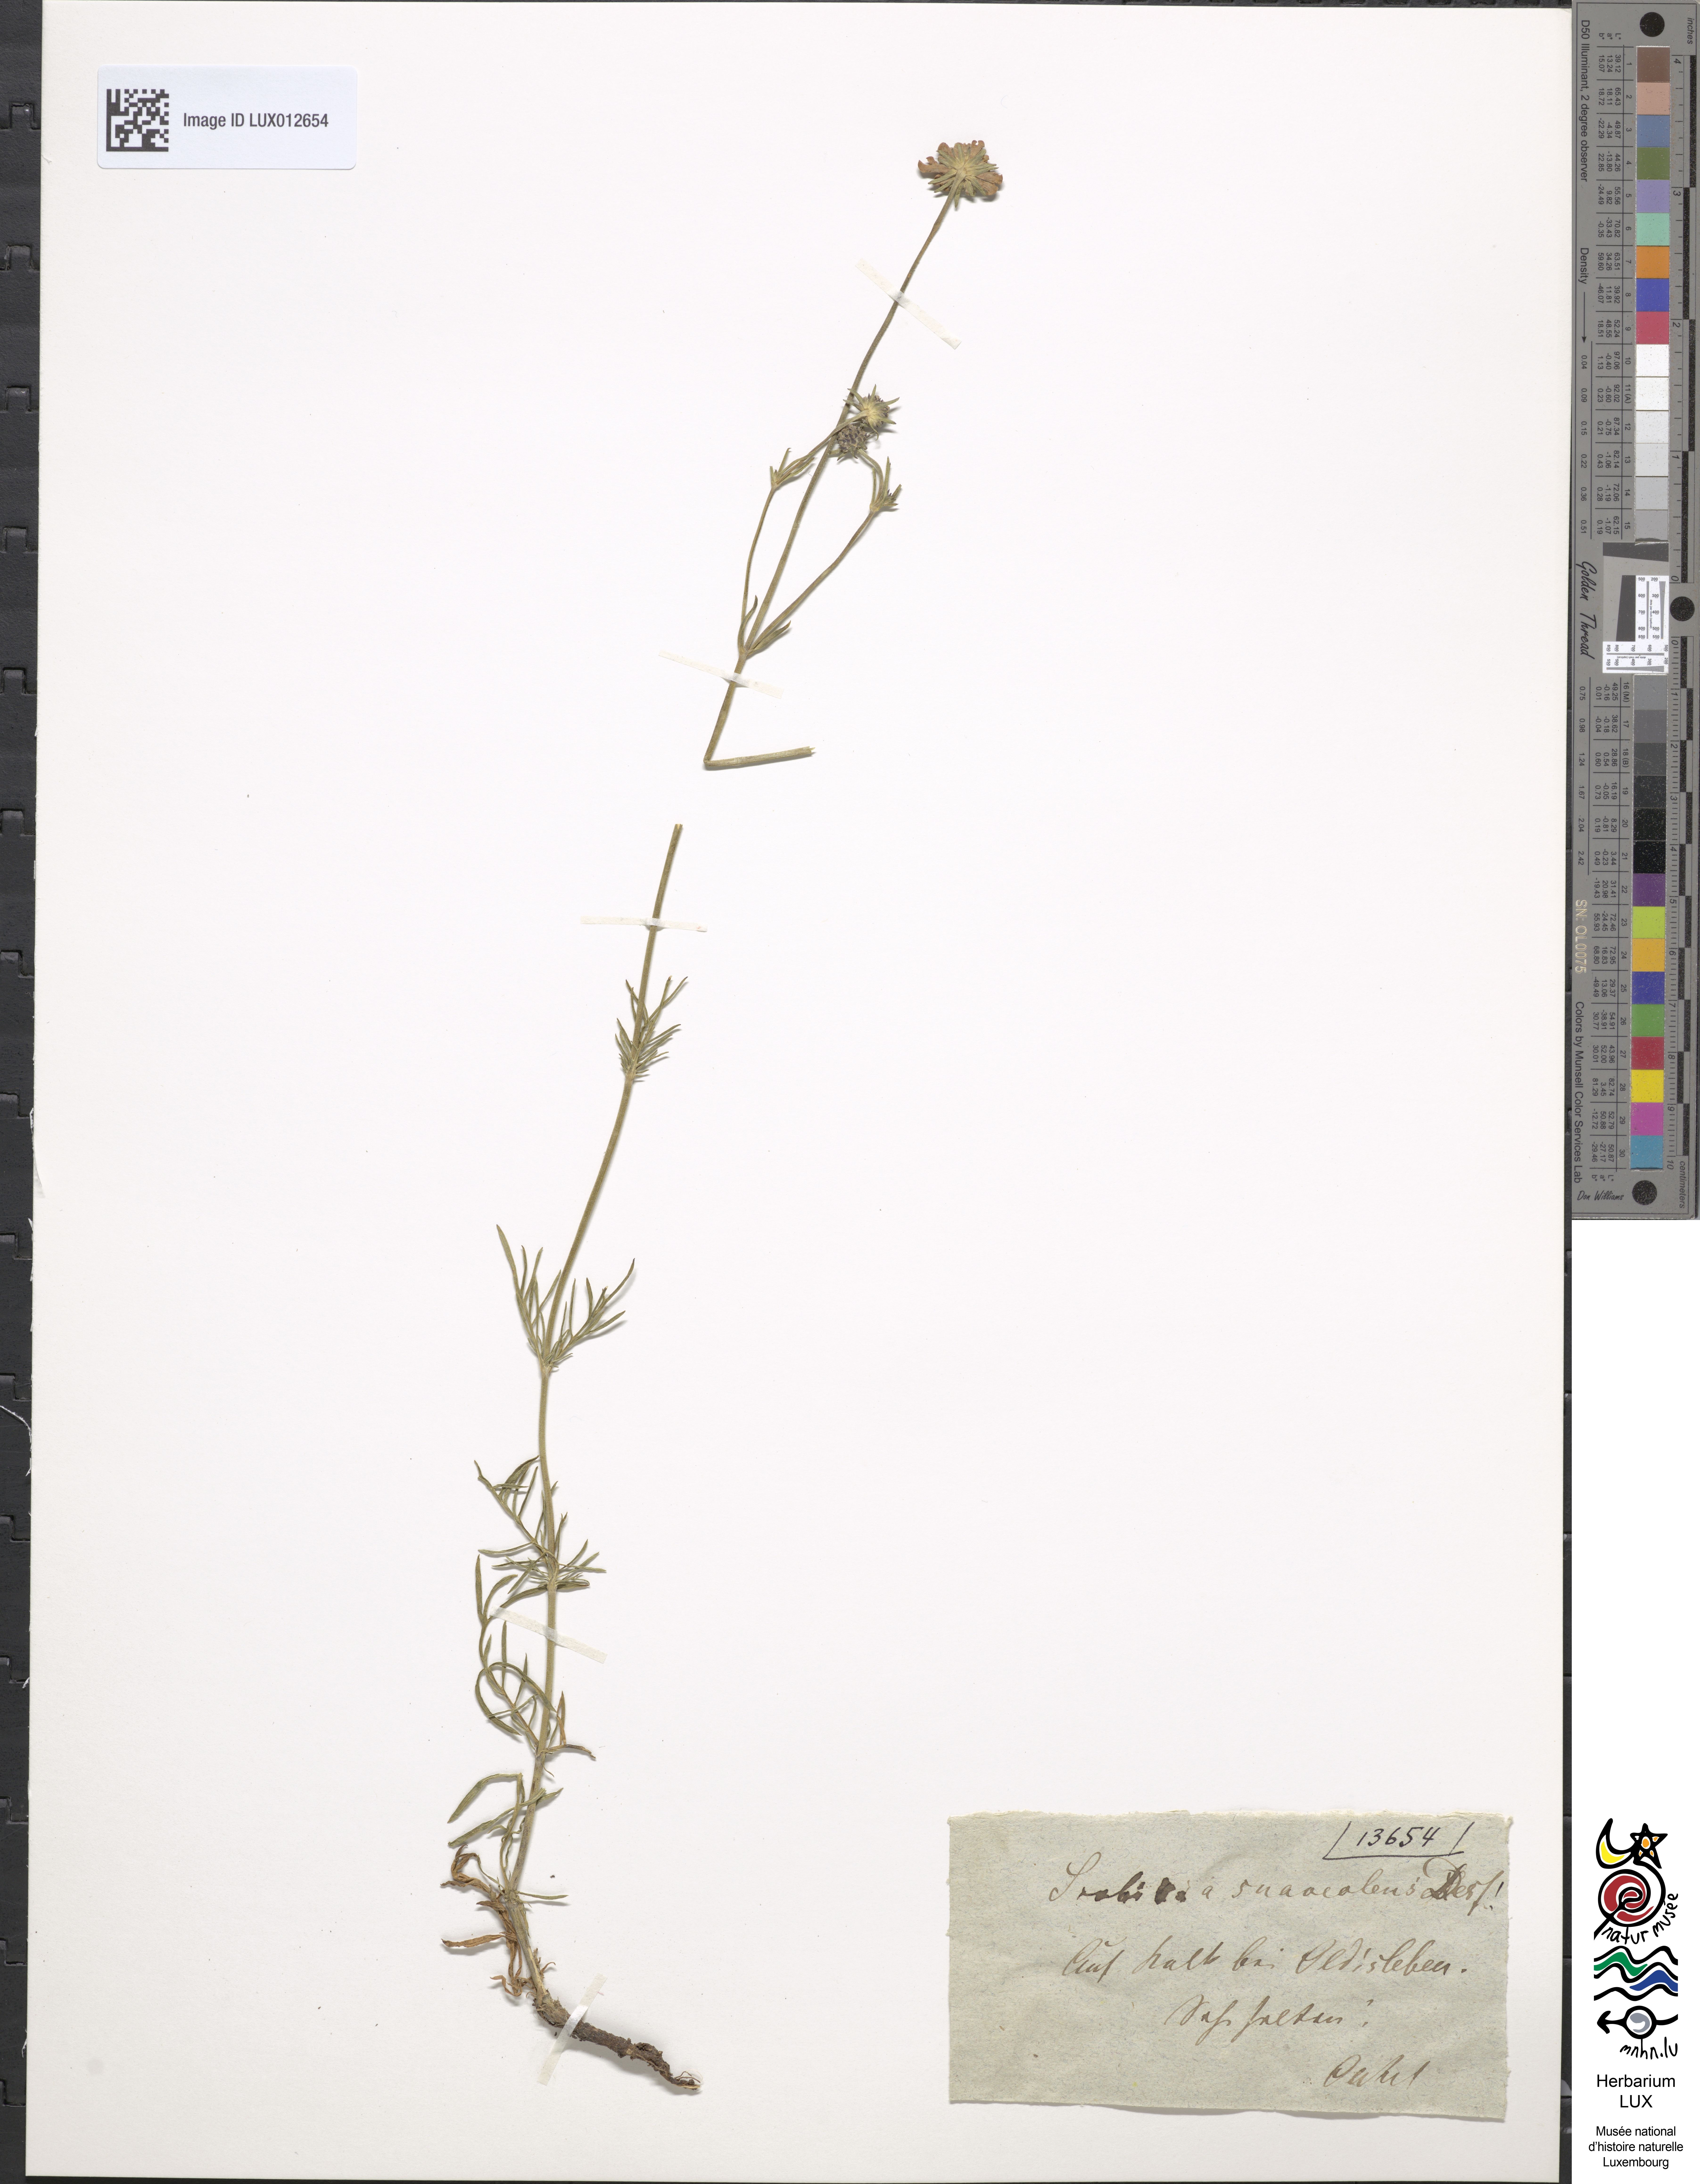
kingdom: Plantae
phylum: Tracheophyta
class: Magnoliopsida
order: Dipsacales
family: Caprifoliaceae
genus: Scabiosa
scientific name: Scabiosa canescens
